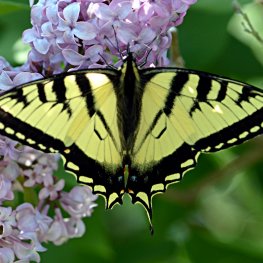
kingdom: Animalia
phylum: Arthropoda
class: Insecta
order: Lepidoptera
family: Papilionidae
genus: Pterourus
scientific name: Pterourus canadensis
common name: Canadian Tiger Swallowtail
